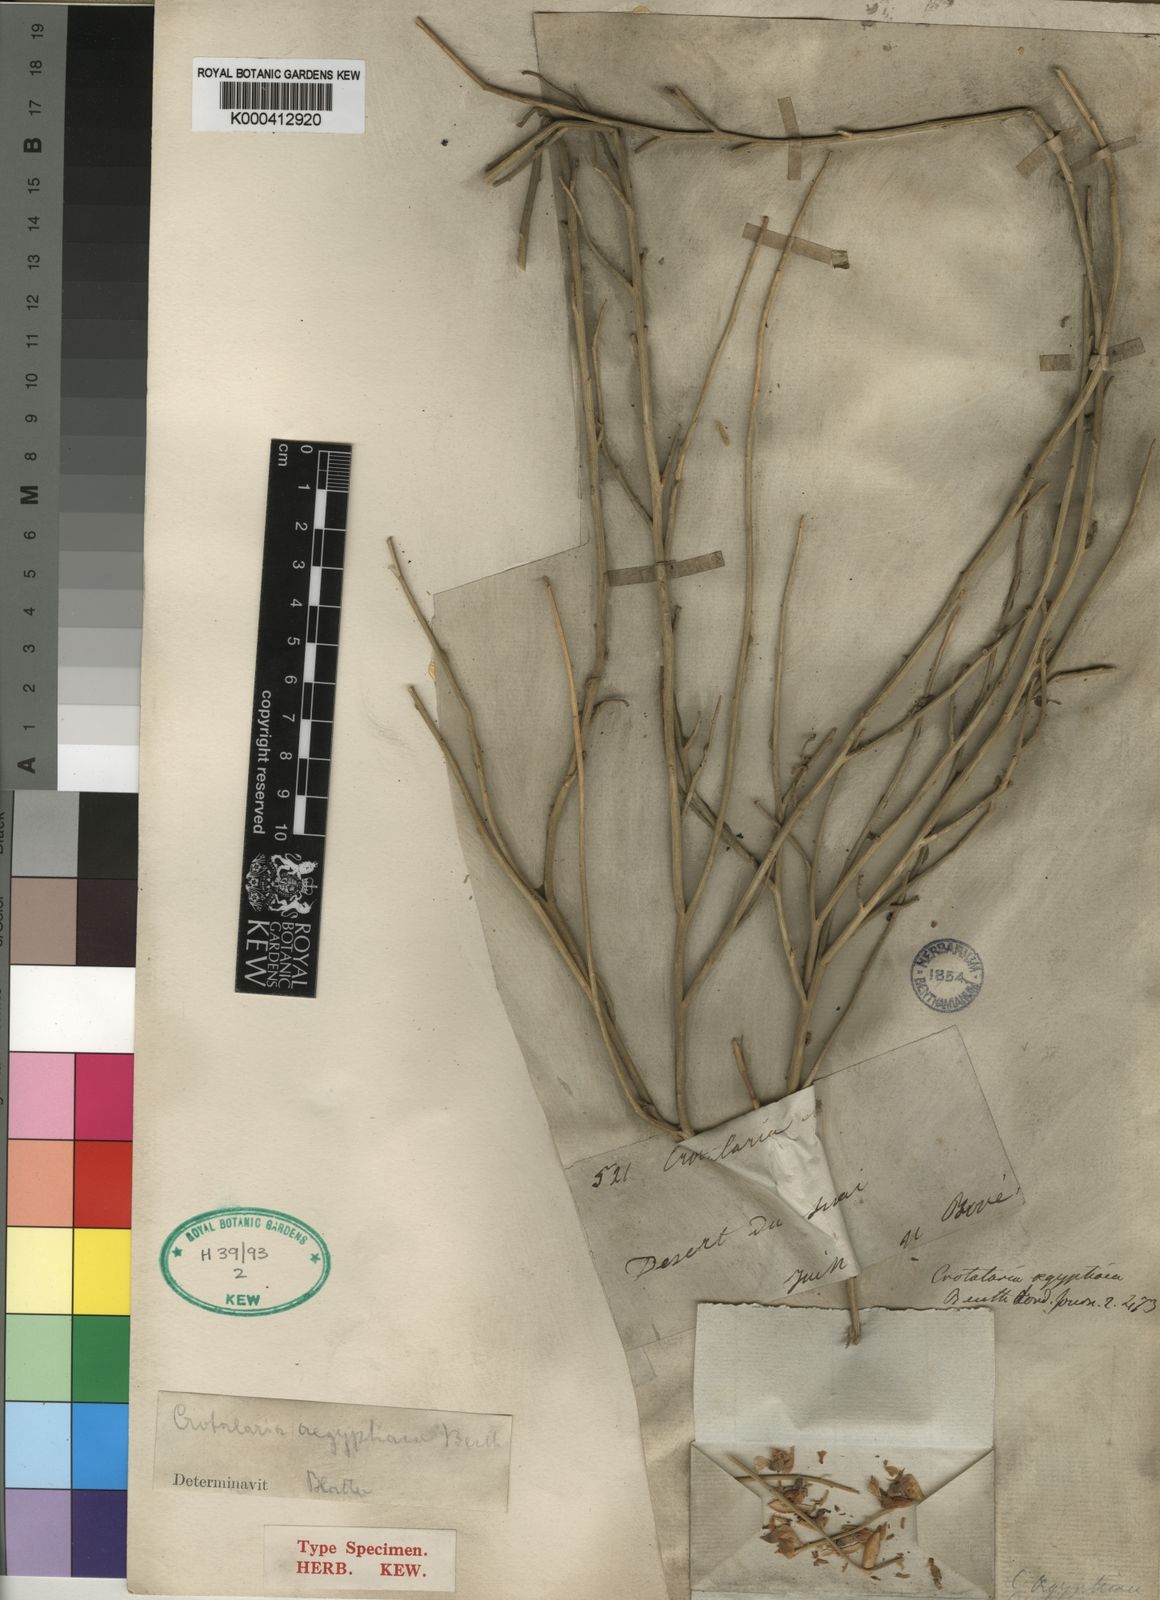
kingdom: Plantae
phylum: Tracheophyta
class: Magnoliopsida
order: Fabales
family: Fabaceae
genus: Crotalaria
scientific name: Crotalaria aegyptiaca
